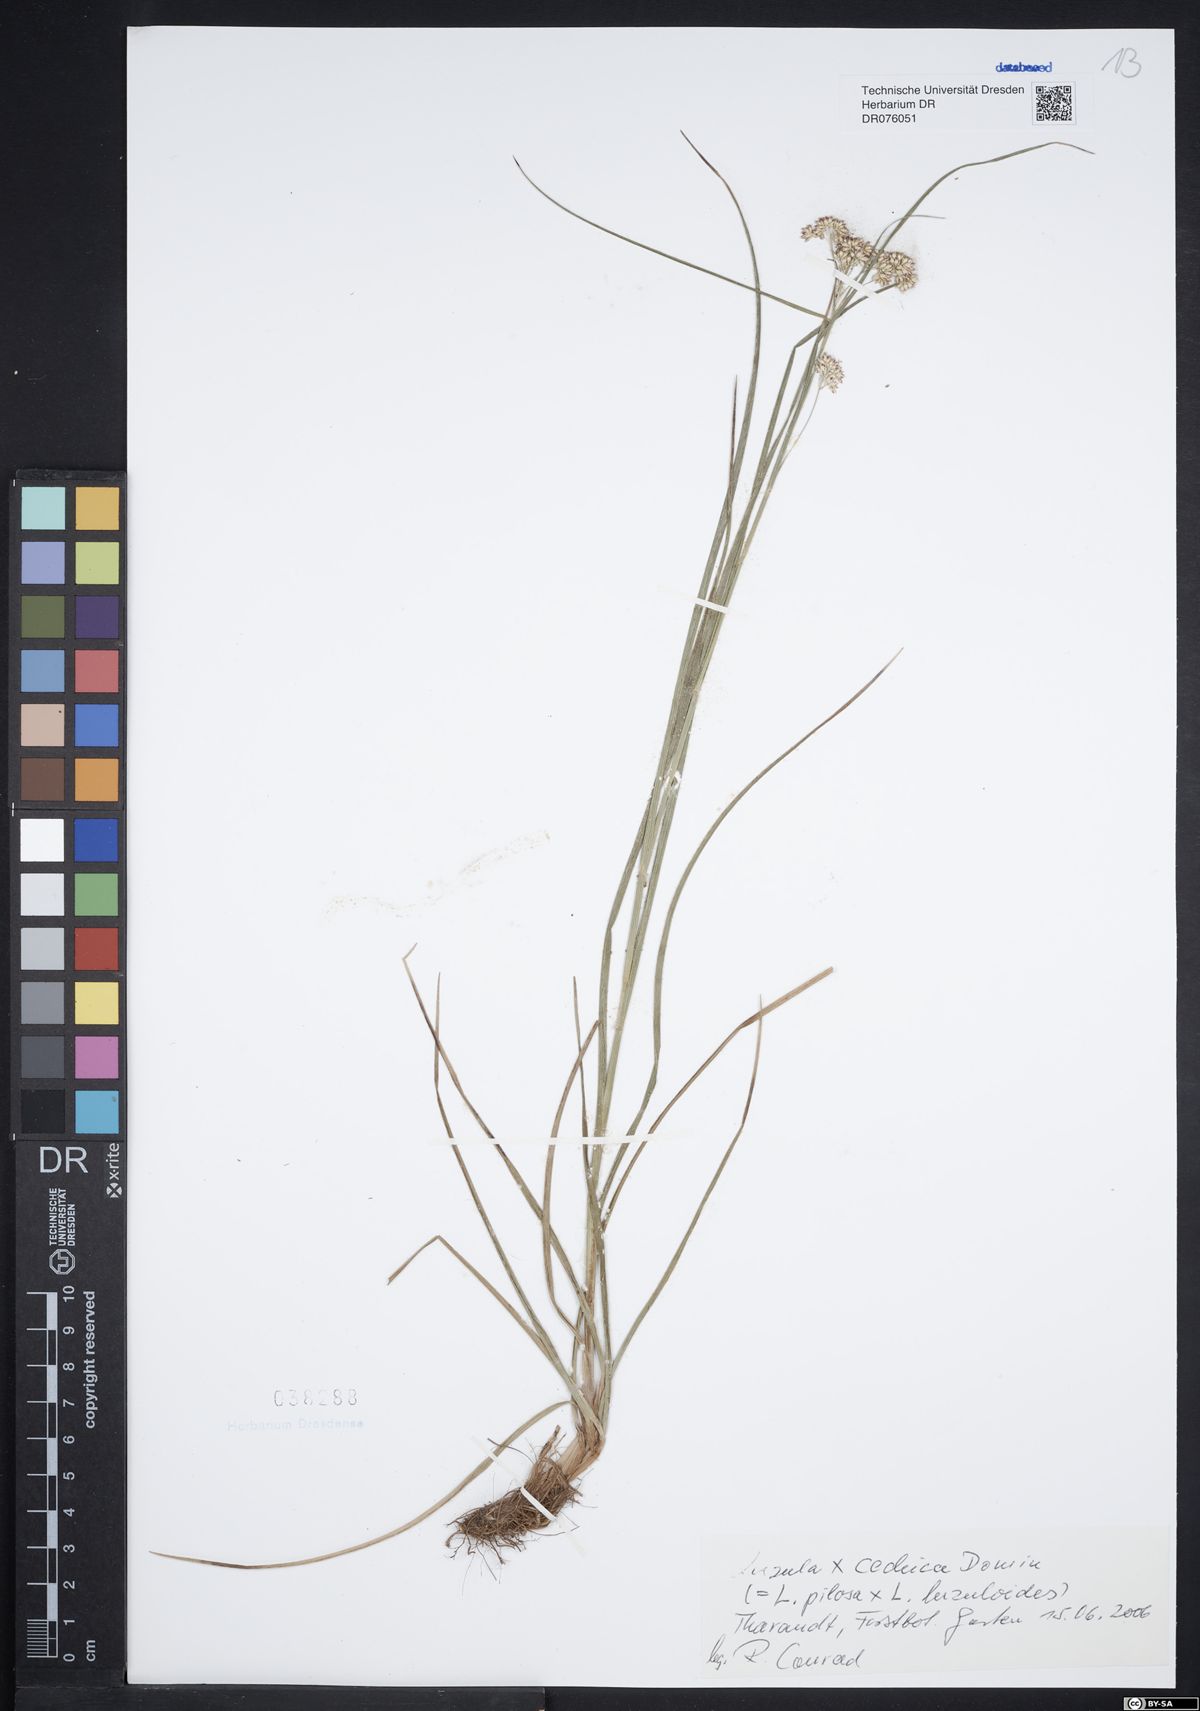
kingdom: Plantae
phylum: Tracheophyta
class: Liliopsida
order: Poales
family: Juncaceae
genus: Luzula
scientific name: Luzula pilosa
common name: Hairy wood-rush
